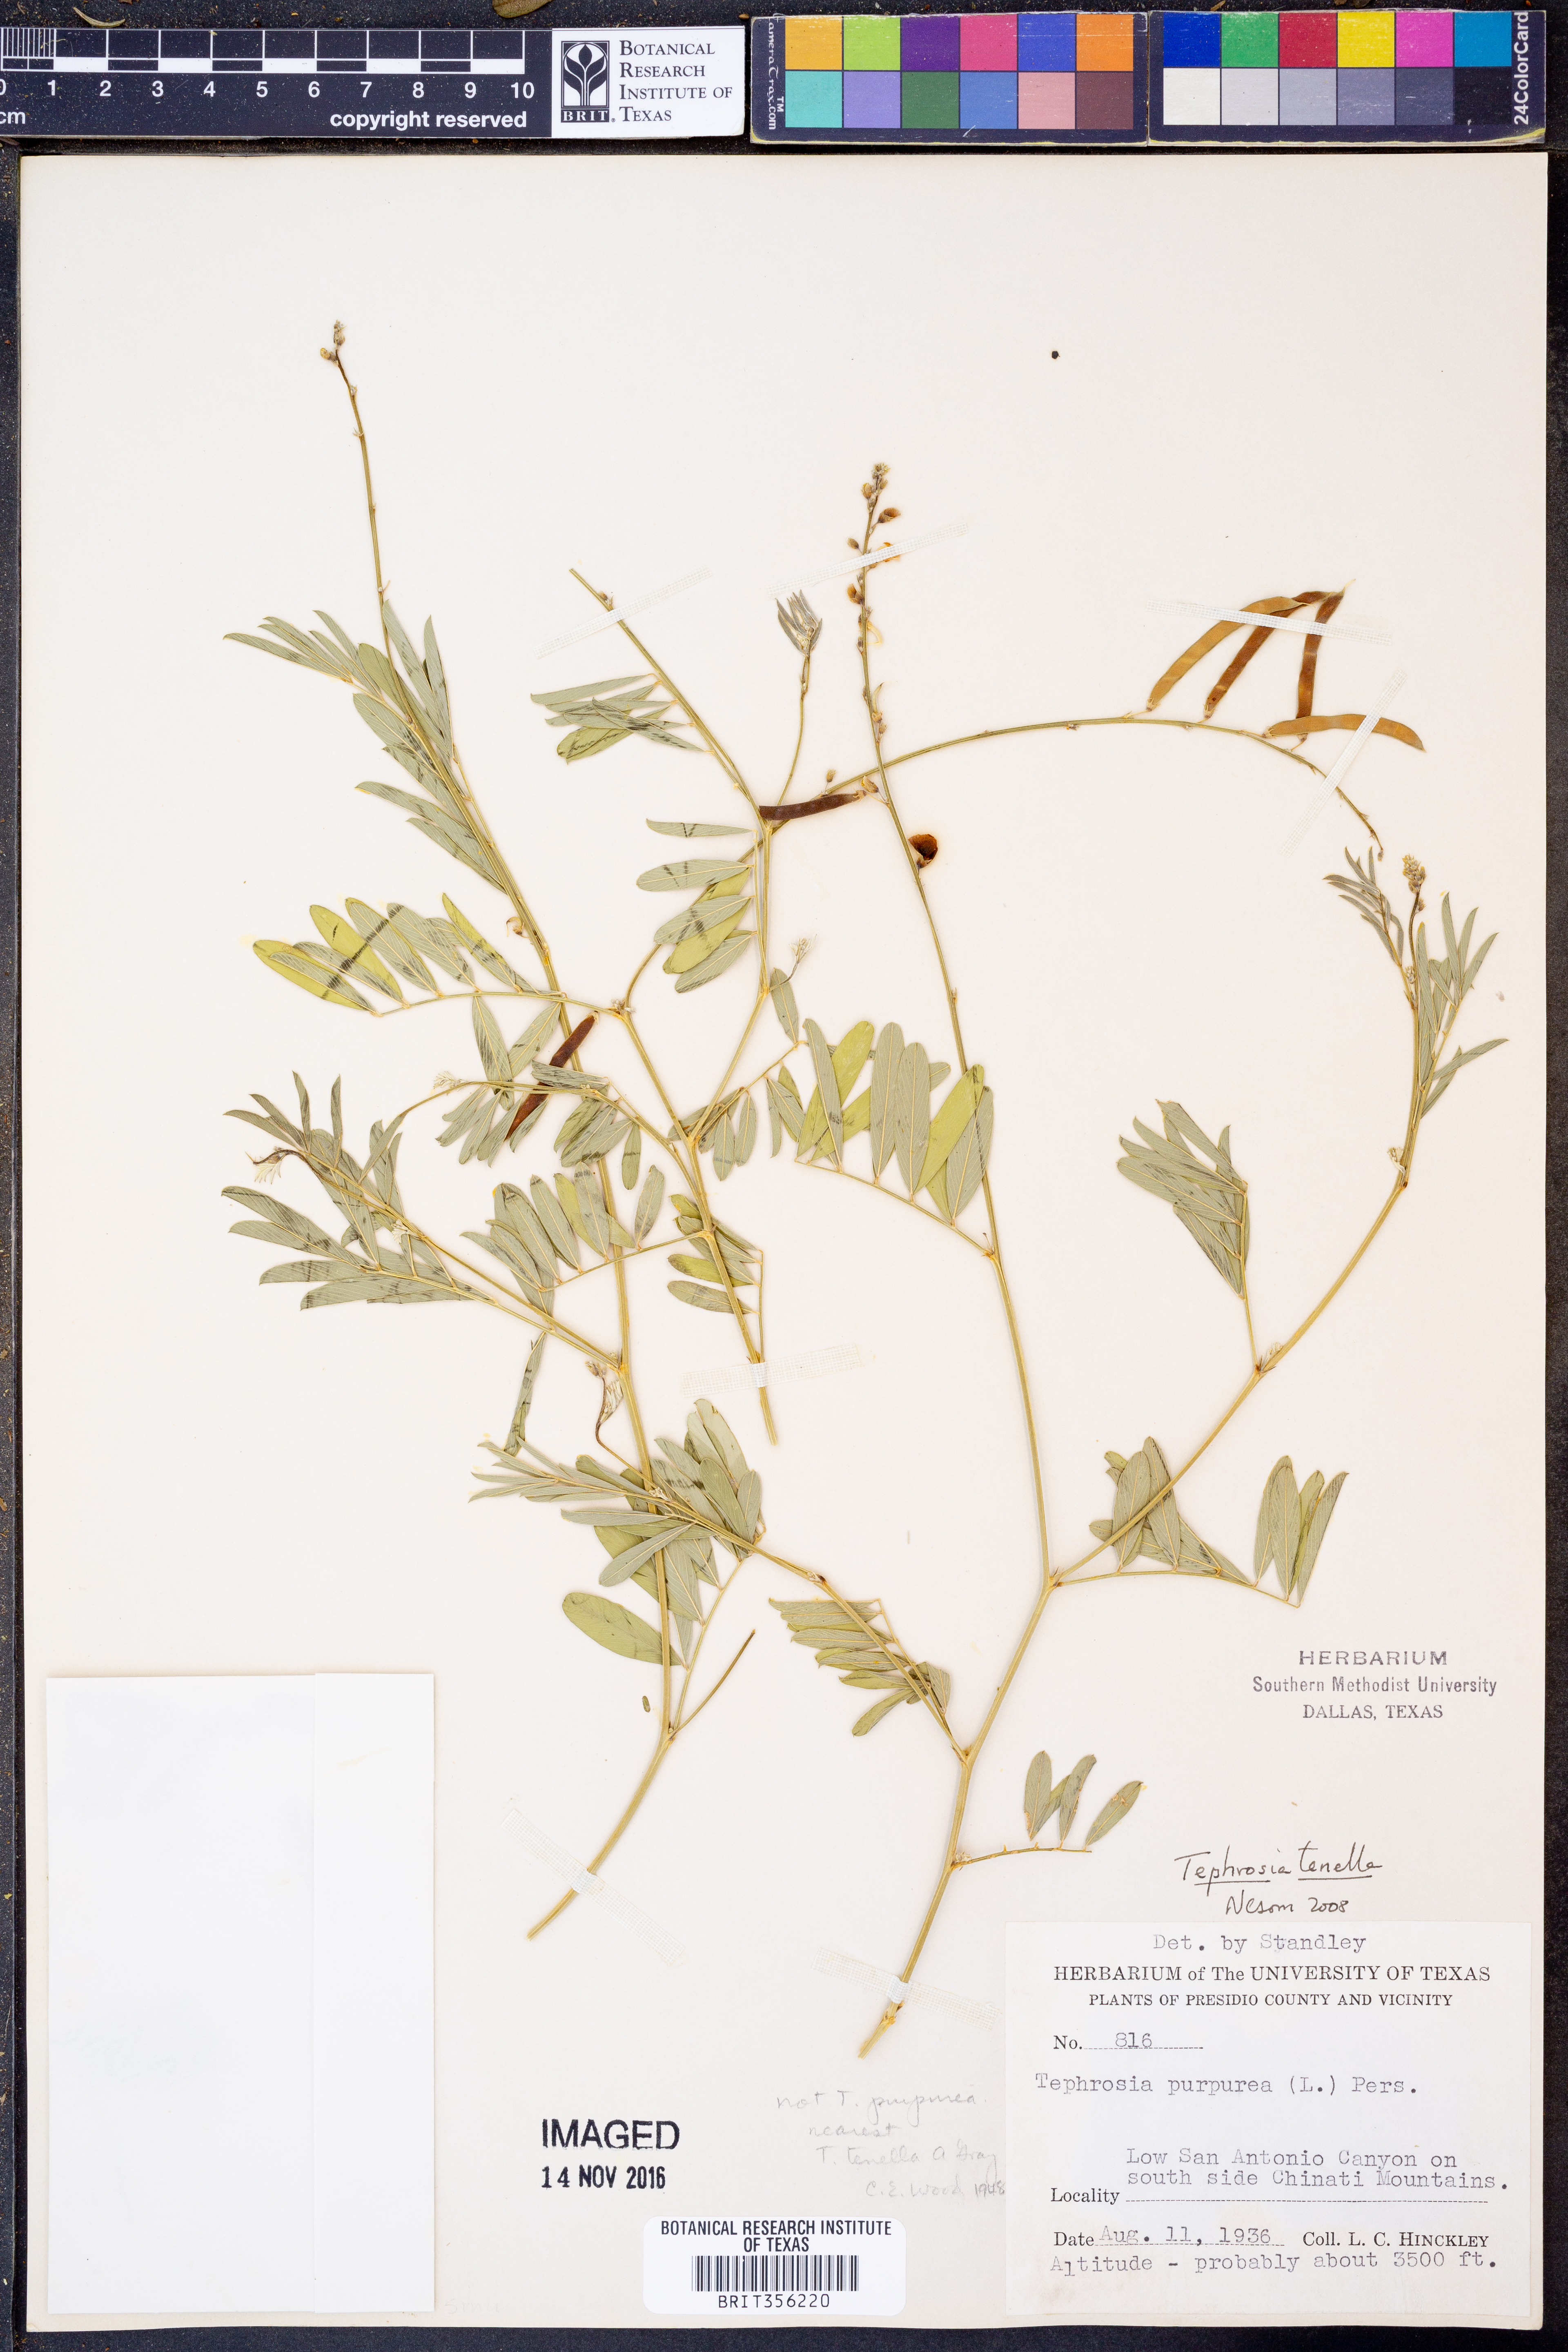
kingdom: Plantae
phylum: Tracheophyta
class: Magnoliopsida
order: Fabales
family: Fabaceae
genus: Tephrosia
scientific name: Tephrosia domingensis
